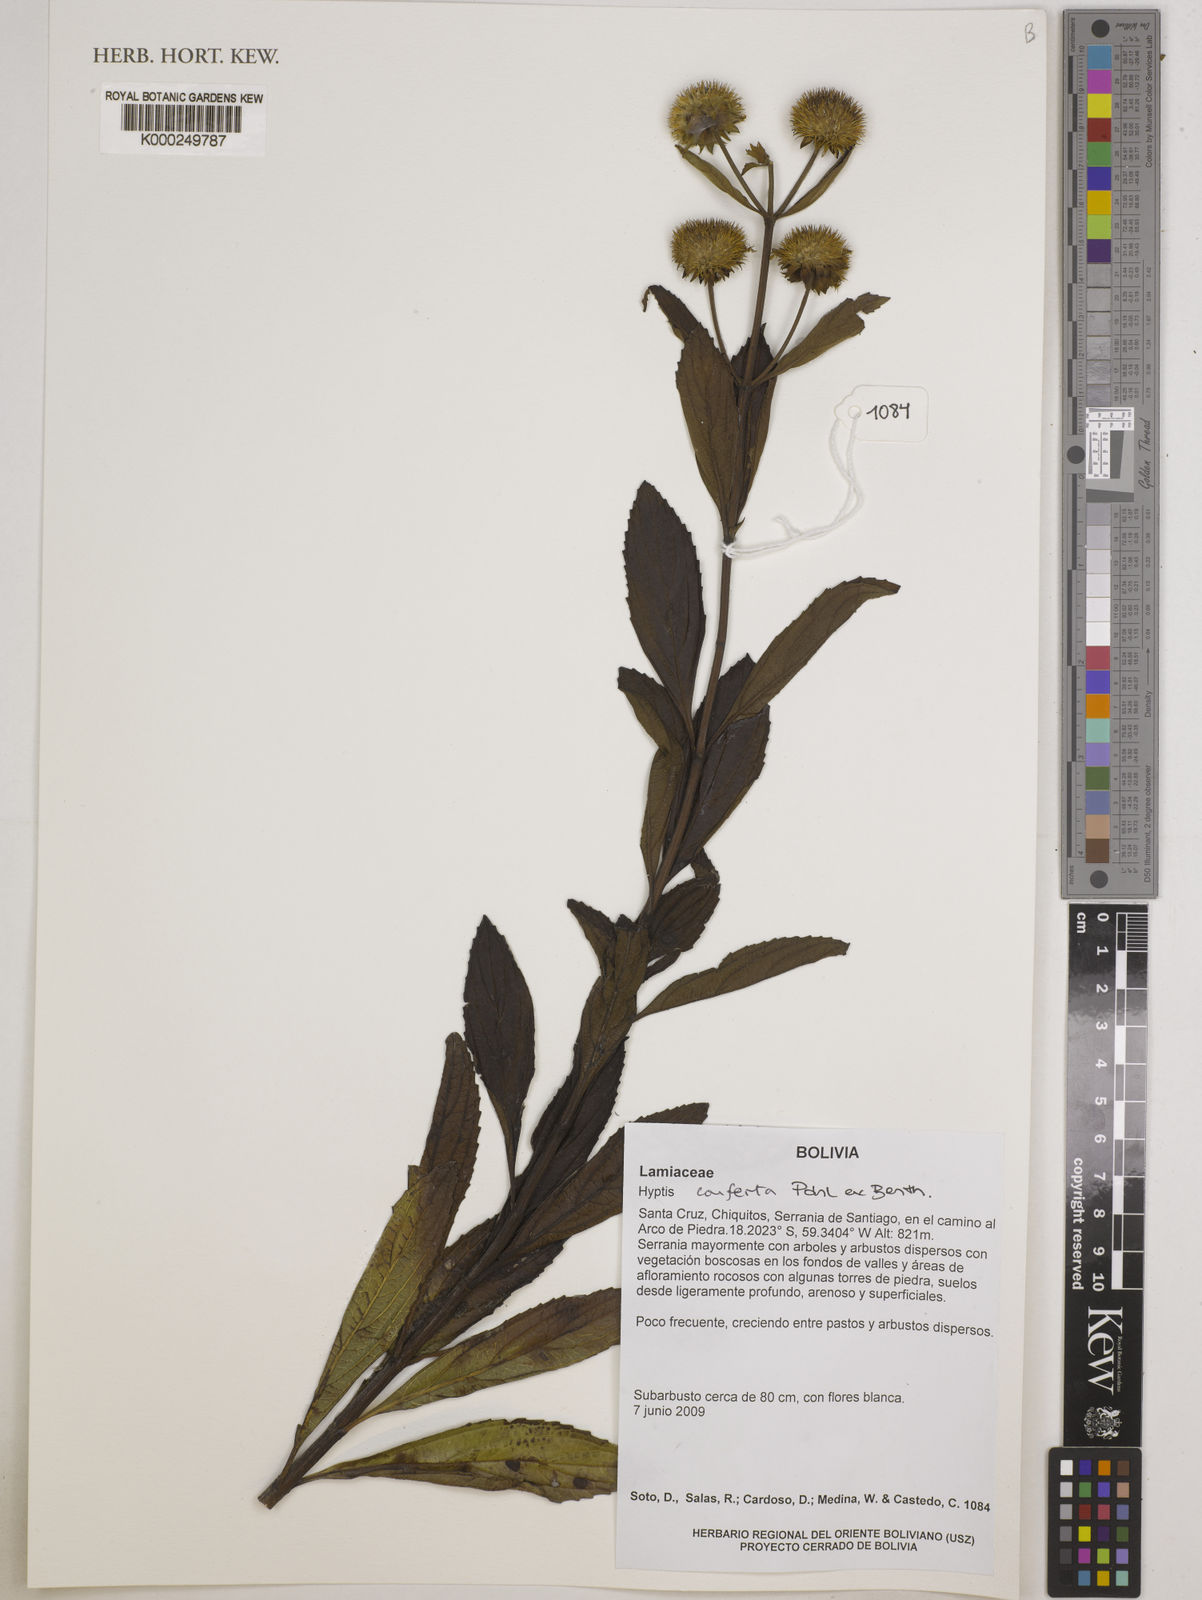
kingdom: Plantae
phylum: Tracheophyta
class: Magnoliopsida
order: Lamiales
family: Lamiaceae
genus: Hyptis
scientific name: Hyptis conferta
